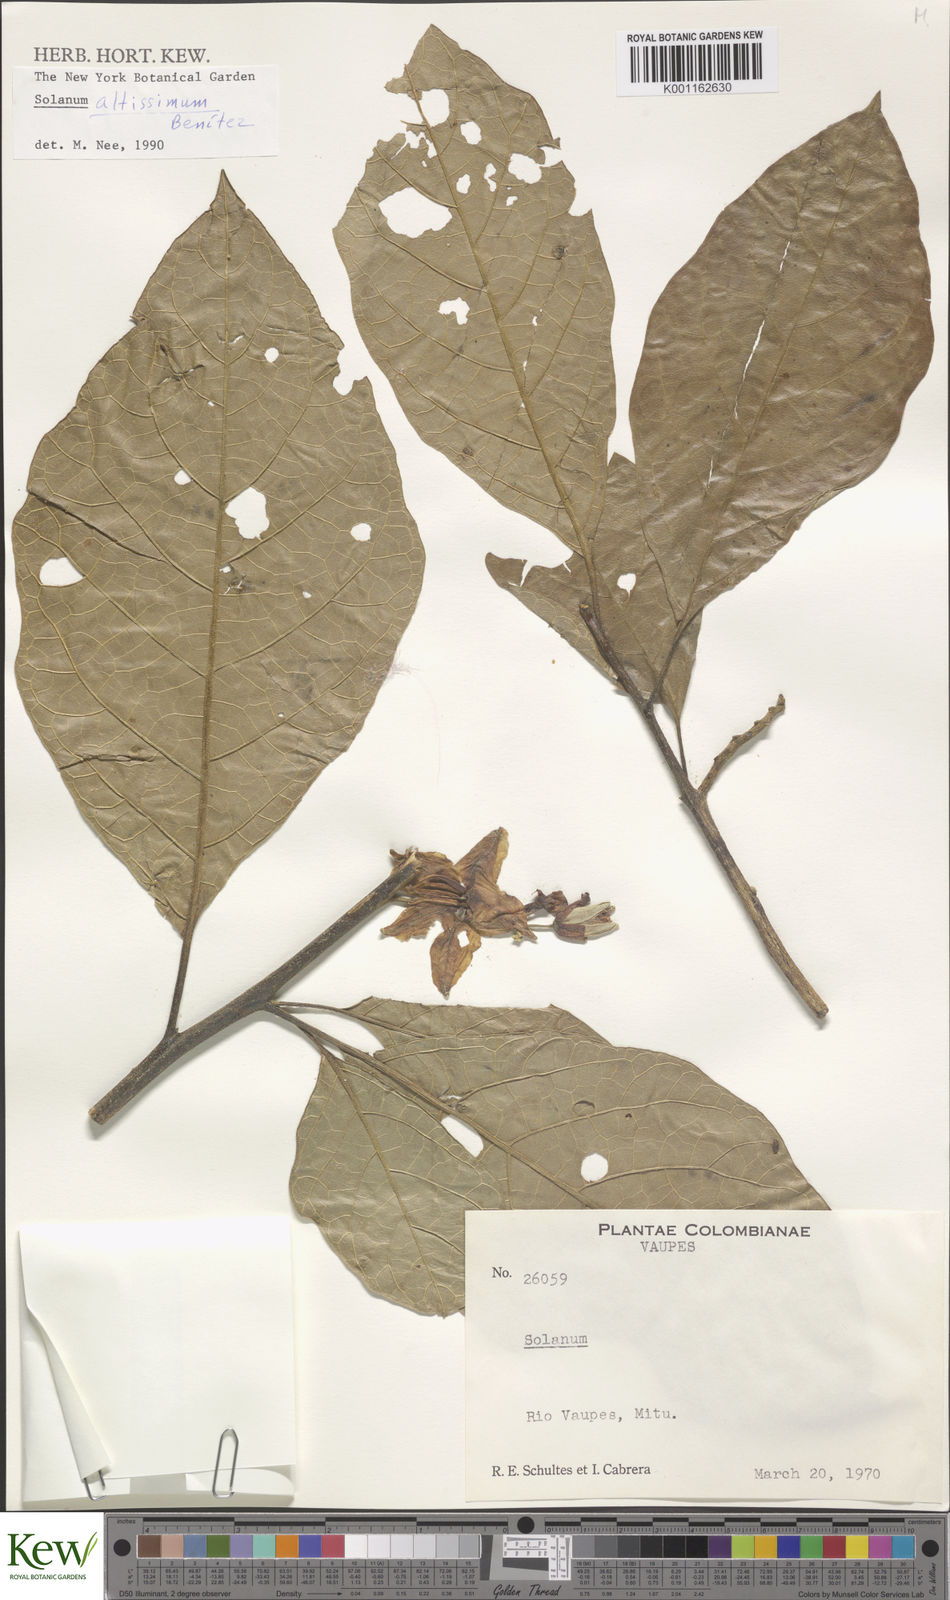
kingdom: Plantae
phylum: Tracheophyta
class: Magnoliopsida
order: Solanales
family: Solanaceae
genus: Solanum
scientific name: Solanum
